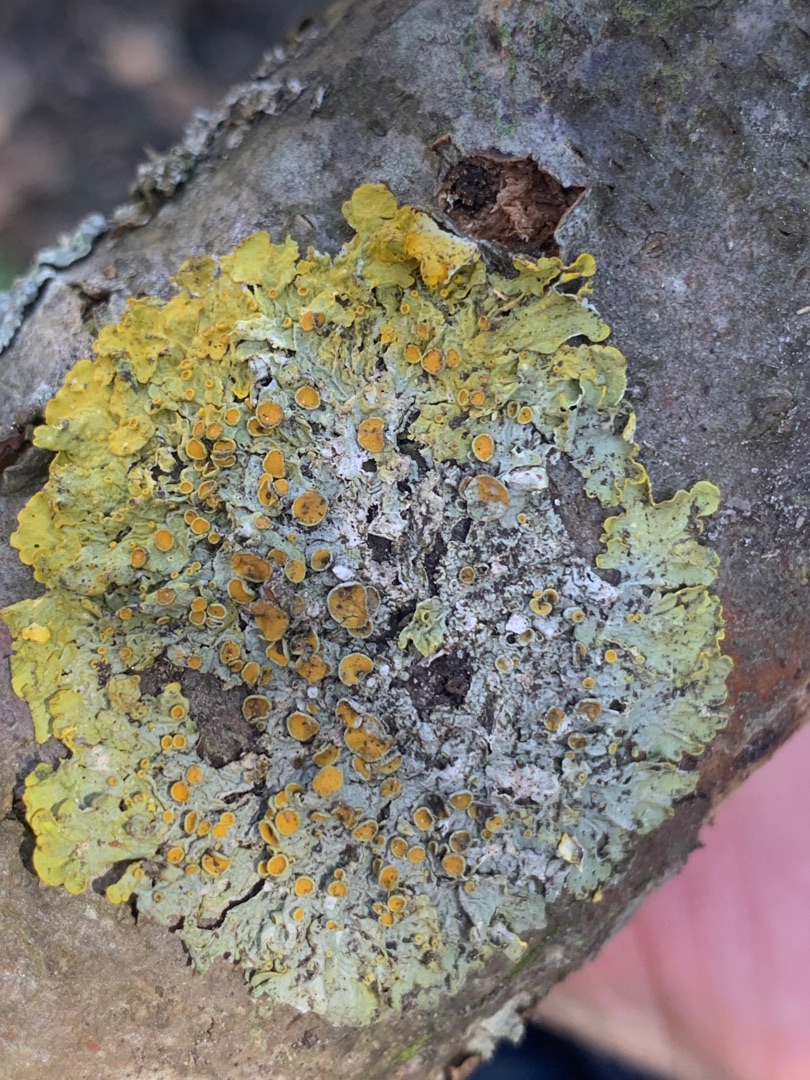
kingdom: Fungi
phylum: Ascomycota
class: Lecanoromycetes
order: Teloschistales
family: Teloschistaceae
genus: Xanthoria
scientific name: Xanthoria parietina
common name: Almindelig væggelav
